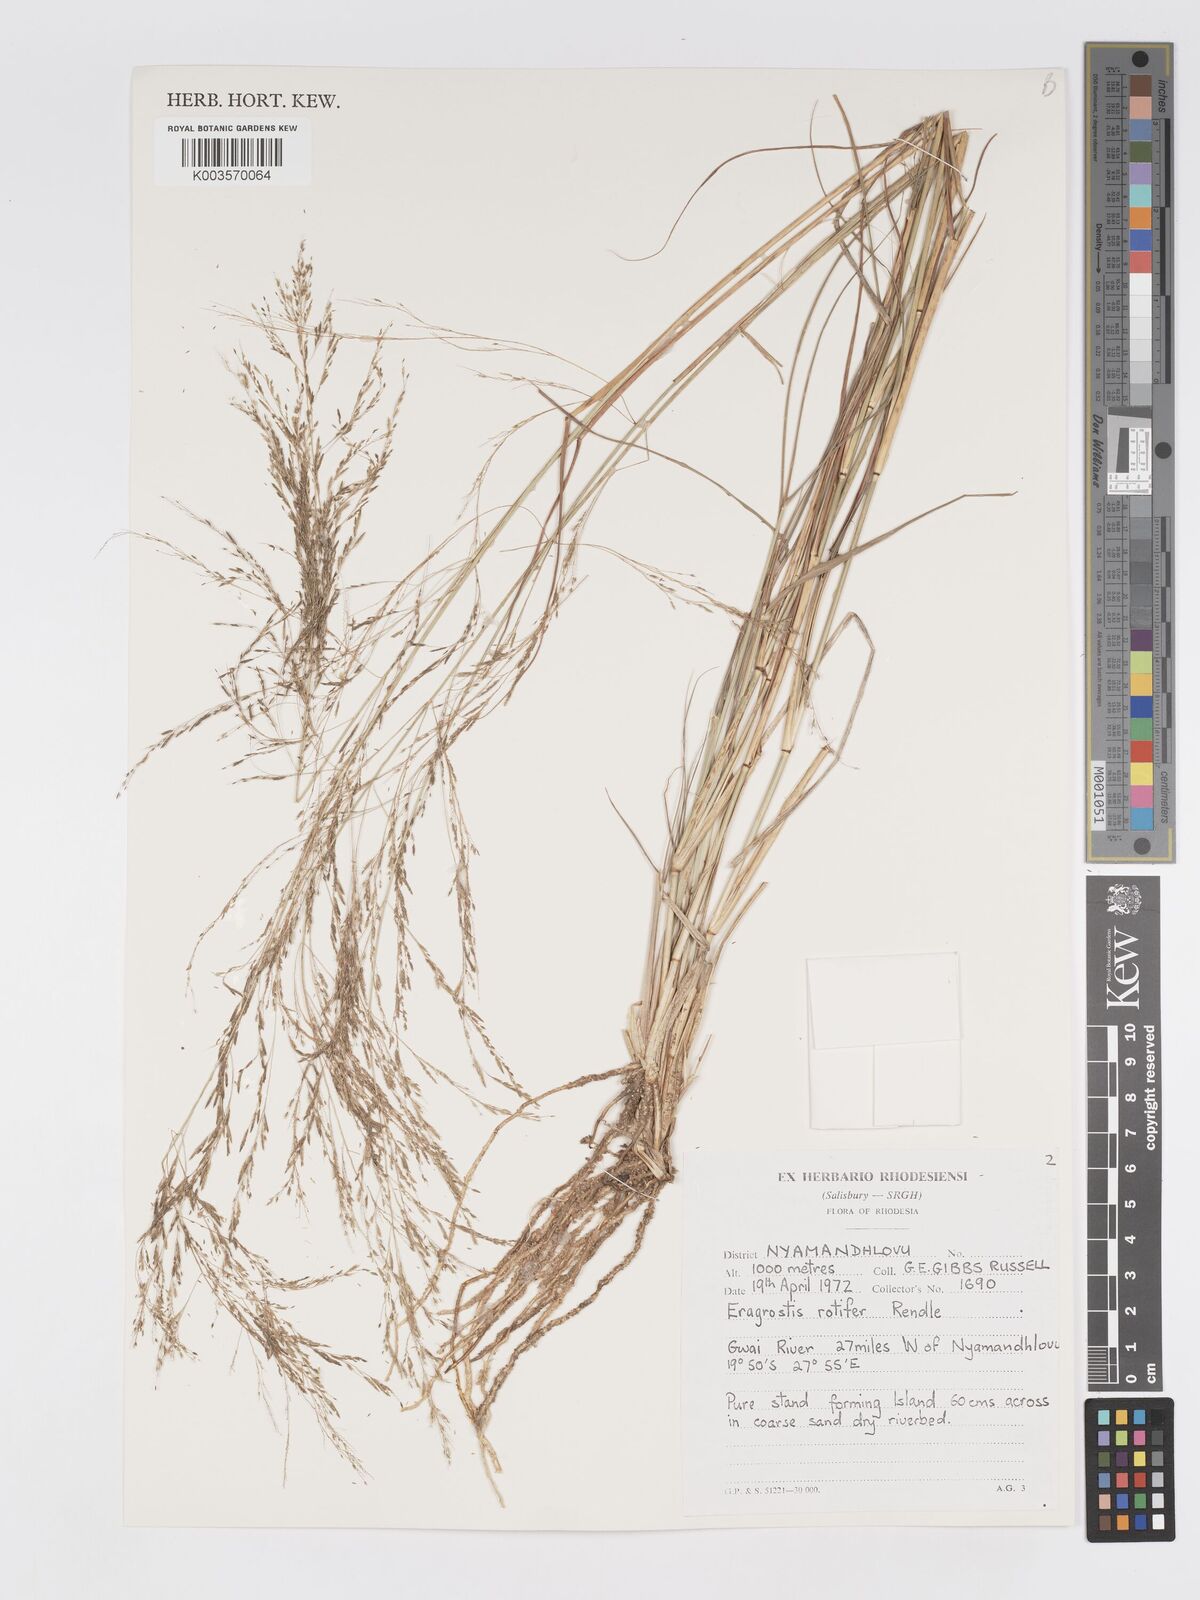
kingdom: Plantae
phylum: Tracheophyta
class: Liliopsida
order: Poales
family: Poaceae
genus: Eragrostis
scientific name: Eragrostis rotifer
